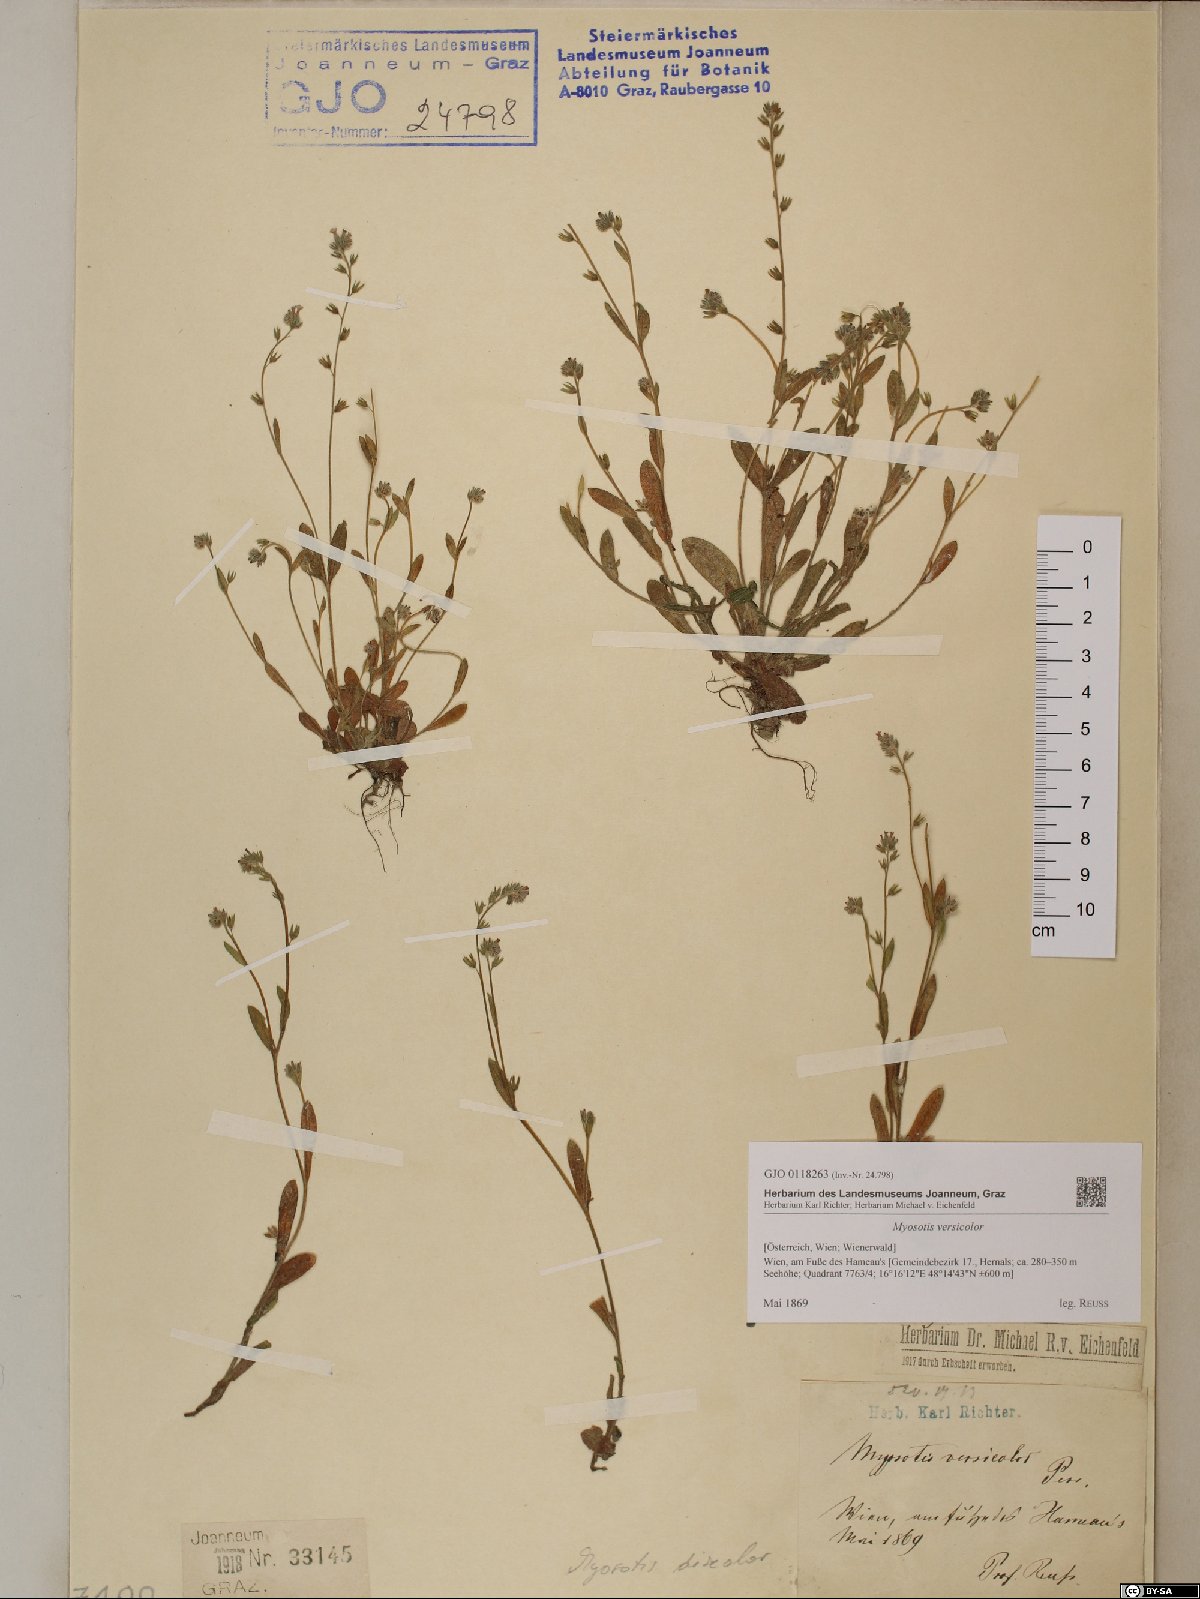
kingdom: Plantae
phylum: Tracheophyta
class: Magnoliopsida
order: Boraginales
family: Boraginaceae
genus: Myosotis
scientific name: Myosotis discolor
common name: Changing forget-me-not
